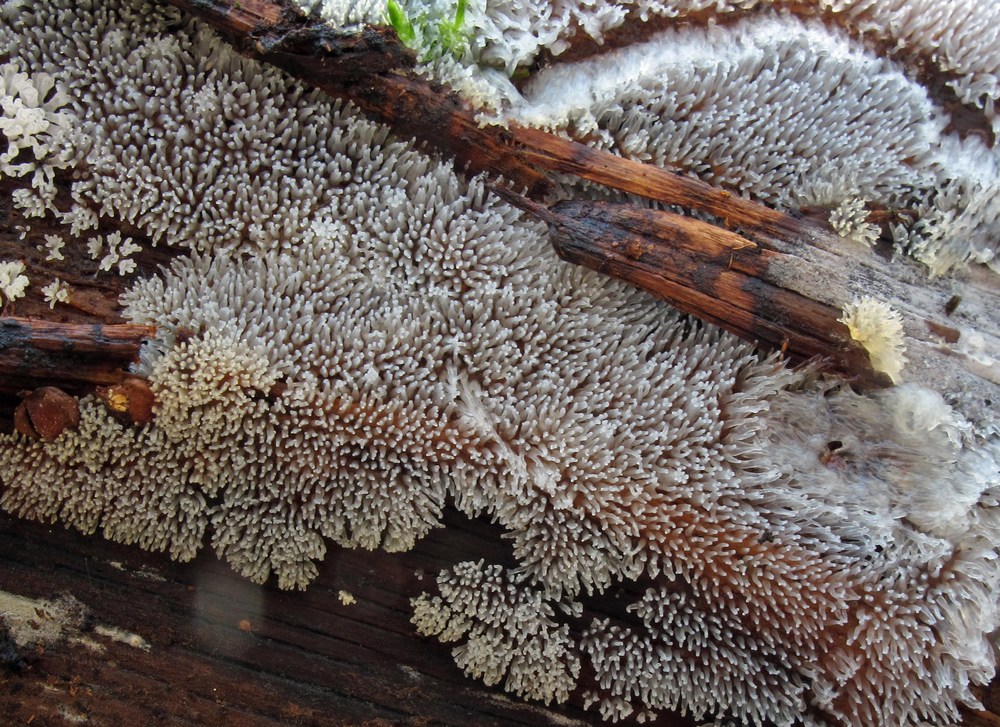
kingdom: Protozoa
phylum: Mycetozoa
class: Protosteliomycetes
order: Ceratiomyxales
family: Ceratiomyxaceae
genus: Ceratiomyxa
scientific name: Ceratiomyxa fruticulosa
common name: Honeycomb coral slime mold
